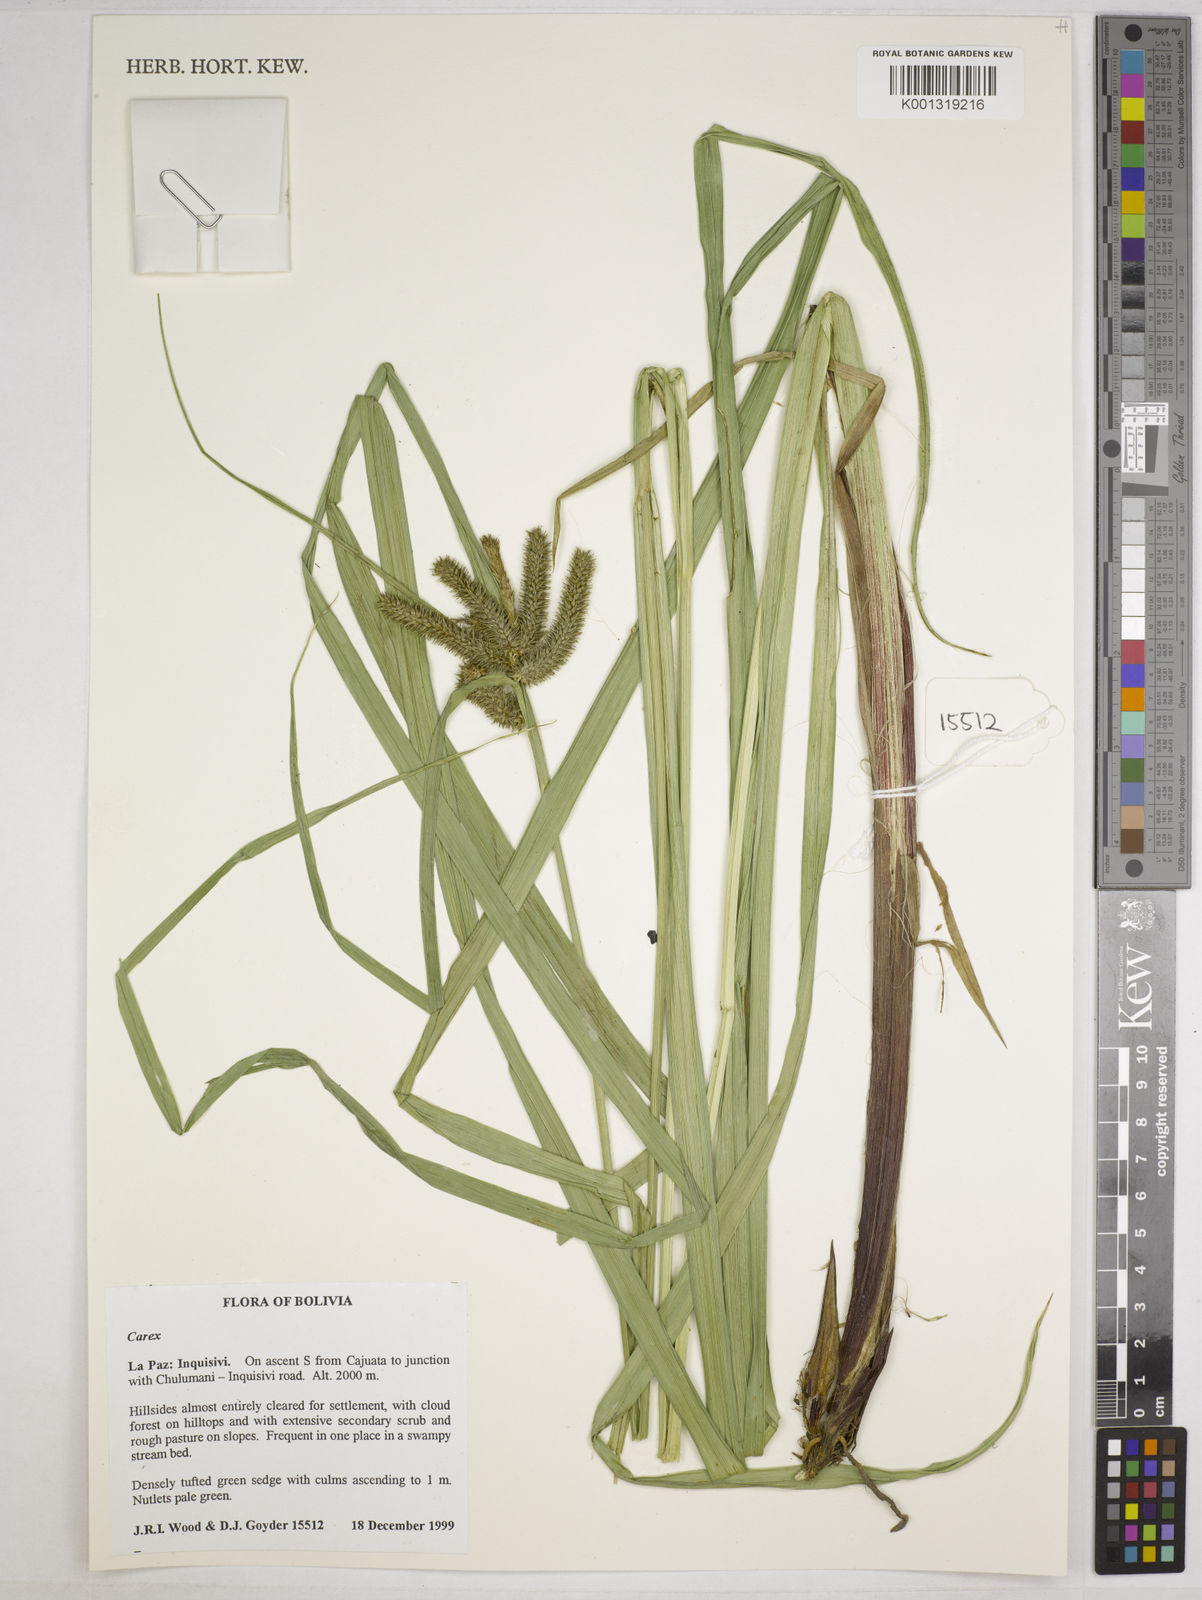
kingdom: Plantae
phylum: Tracheophyta
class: Liliopsida
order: Poales
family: Cyperaceae
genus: Carex
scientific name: Carex acutata
